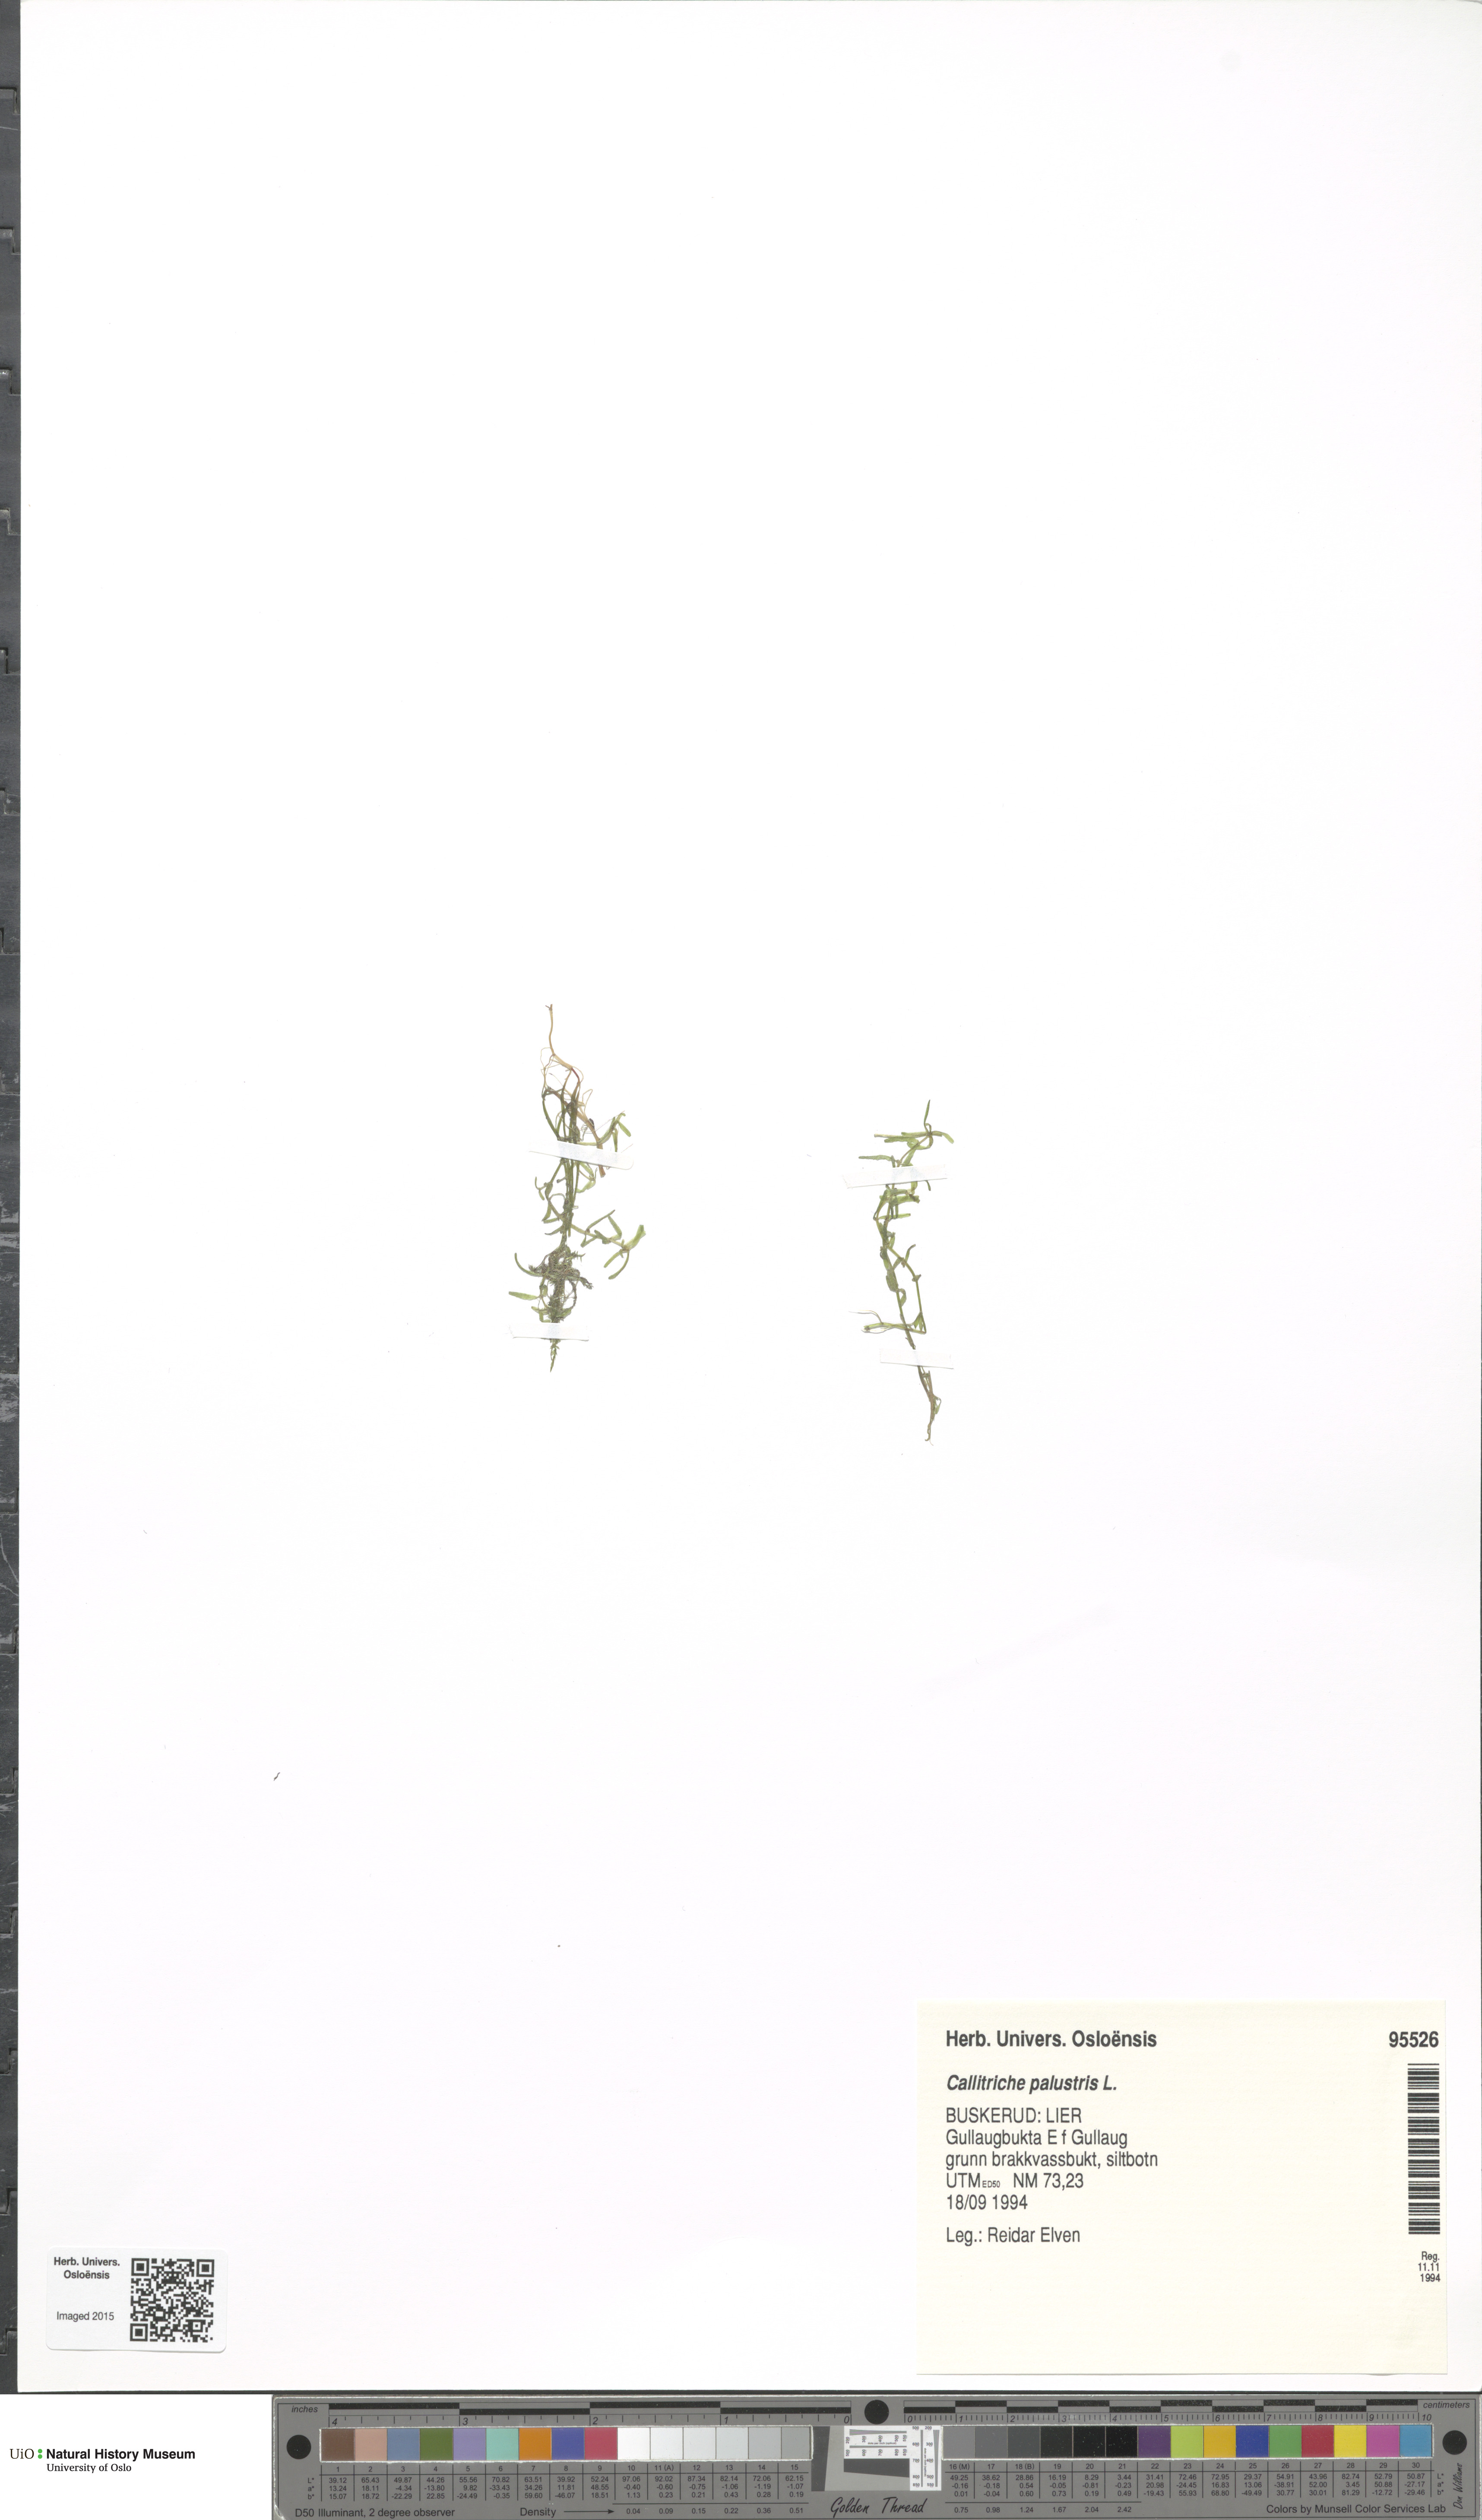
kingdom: Plantae
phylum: Tracheophyta
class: Magnoliopsida
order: Lamiales
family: Plantaginaceae
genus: Callitriche
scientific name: Callitriche palustris
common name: Spring water-starwort
